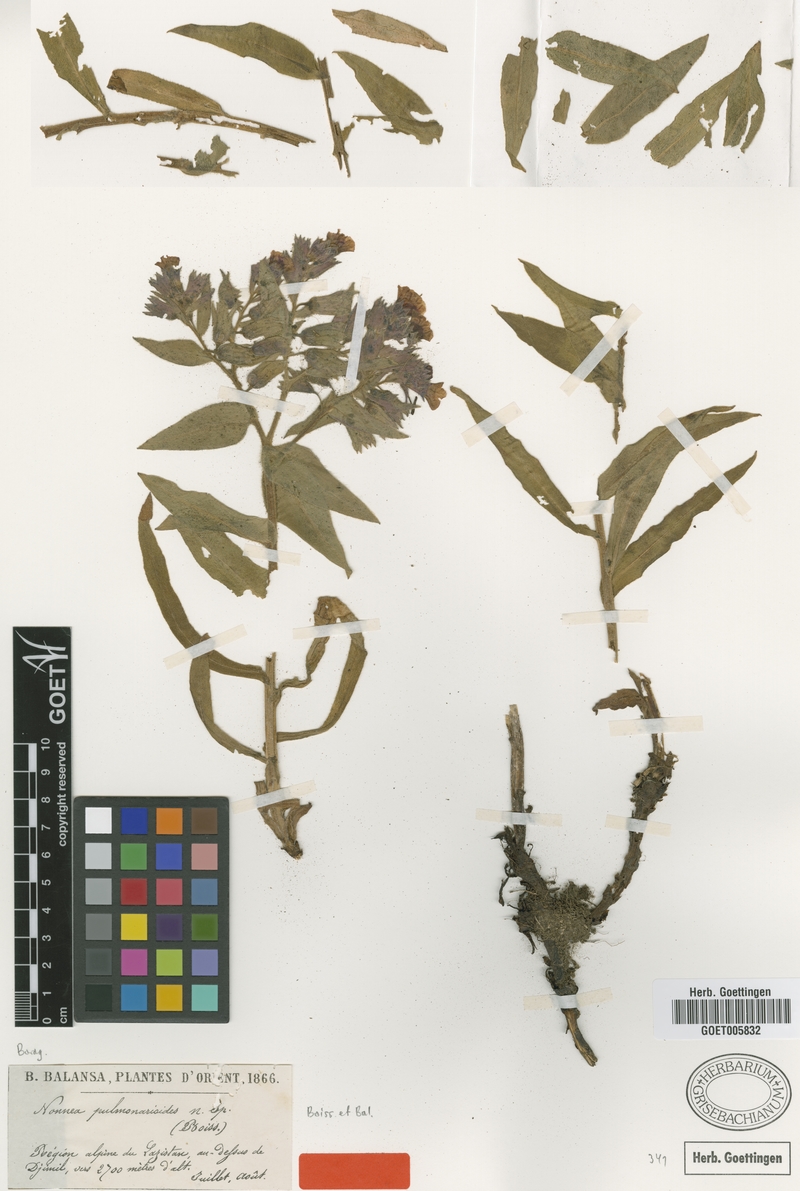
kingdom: Plantae
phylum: Tracheophyta
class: Magnoliopsida
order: Boraginales
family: Boraginaceae
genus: Nonea
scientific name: Nonea pulmonarioides
